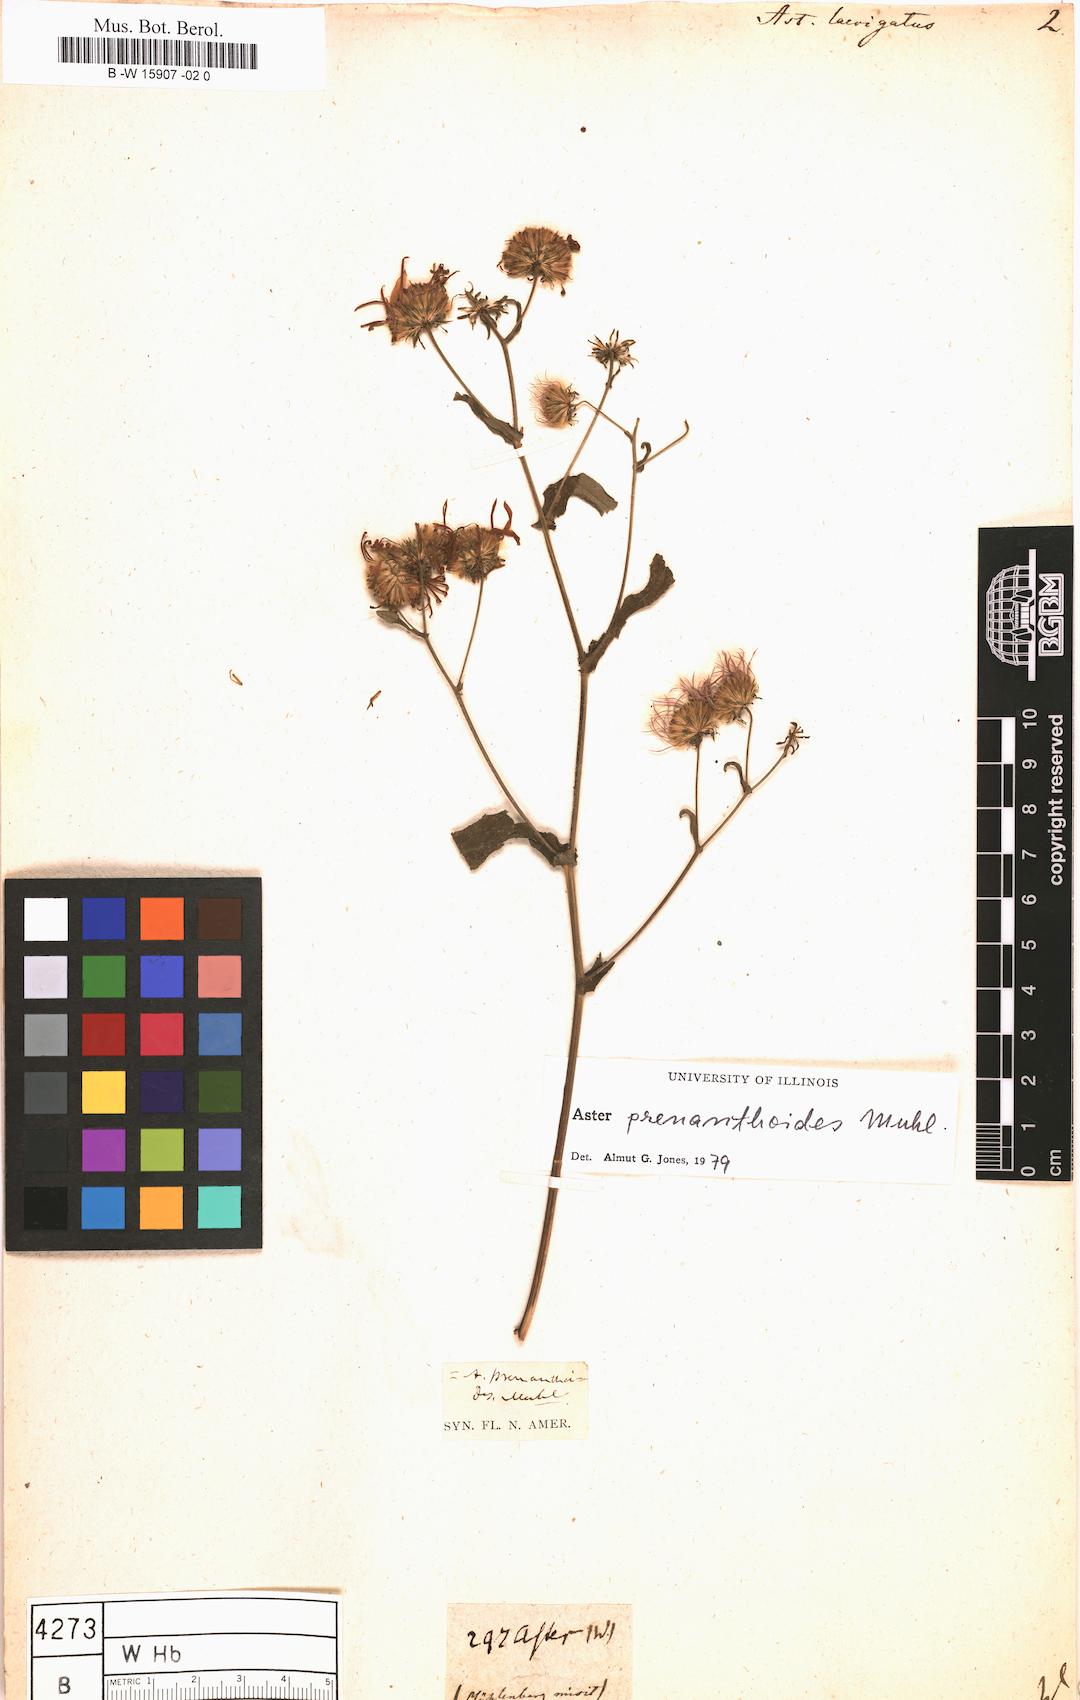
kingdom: Plantae
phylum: Tracheophyta
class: Magnoliopsida
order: Asterales
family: Asteraceae
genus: Symphyotrichum
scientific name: Symphyotrichum novi-belgii
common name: Michaelmas daisy
